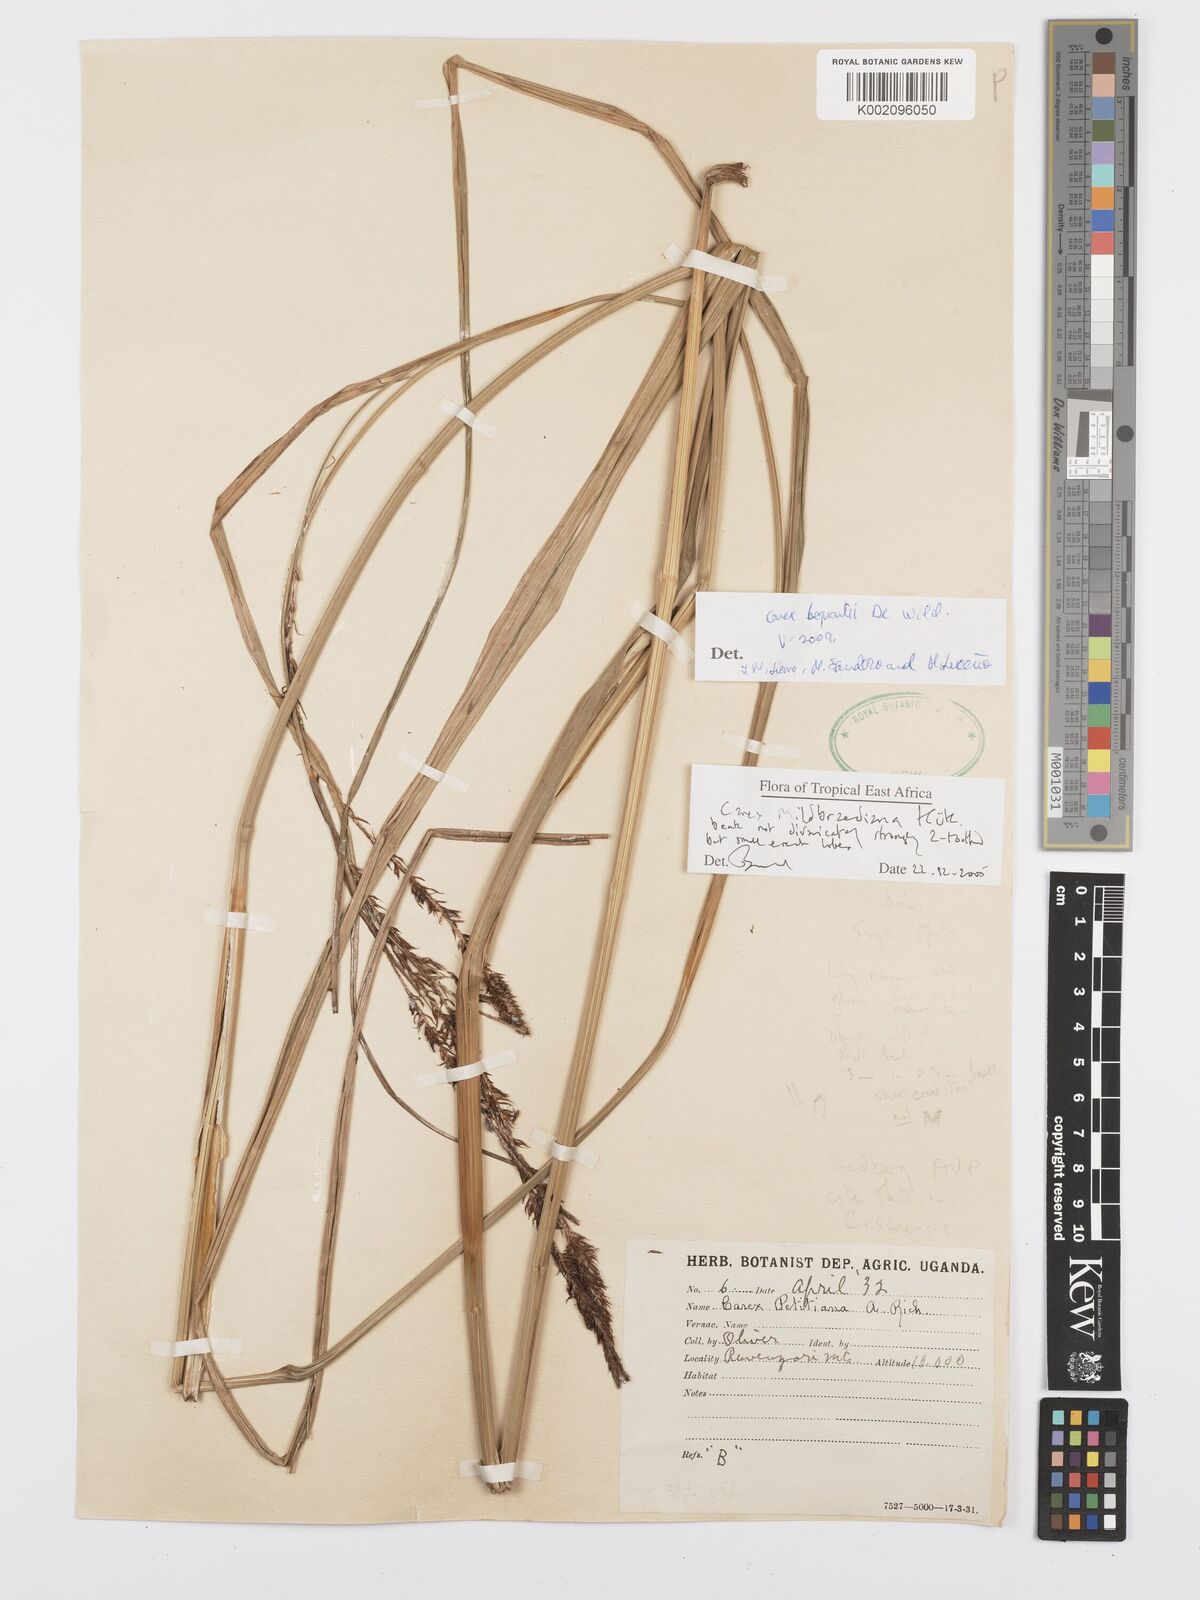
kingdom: Plantae
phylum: Tracheophyta
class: Liliopsida
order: Poales
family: Cyperaceae
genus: Carex
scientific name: Carex bequaertii
